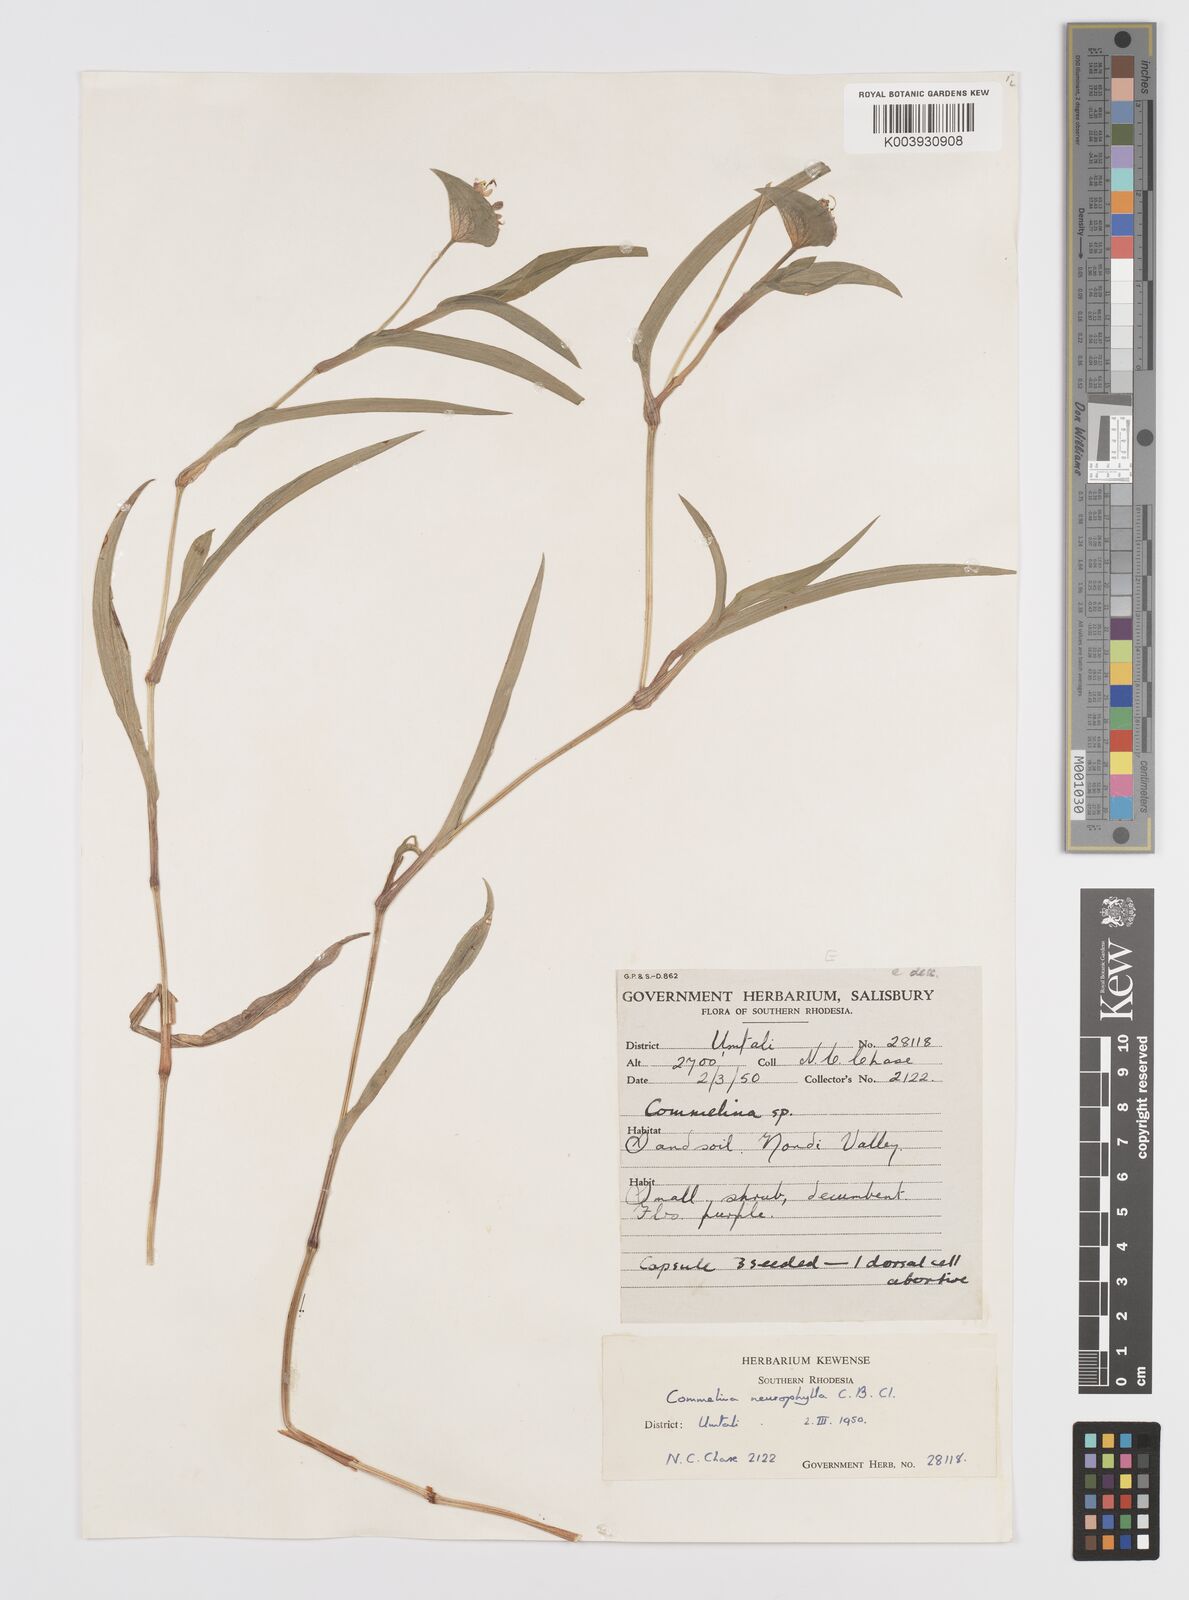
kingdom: Plantae
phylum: Tracheophyta
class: Liliopsida
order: Commelinales
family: Commelinaceae
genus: Commelina
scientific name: Commelina neurophylla
